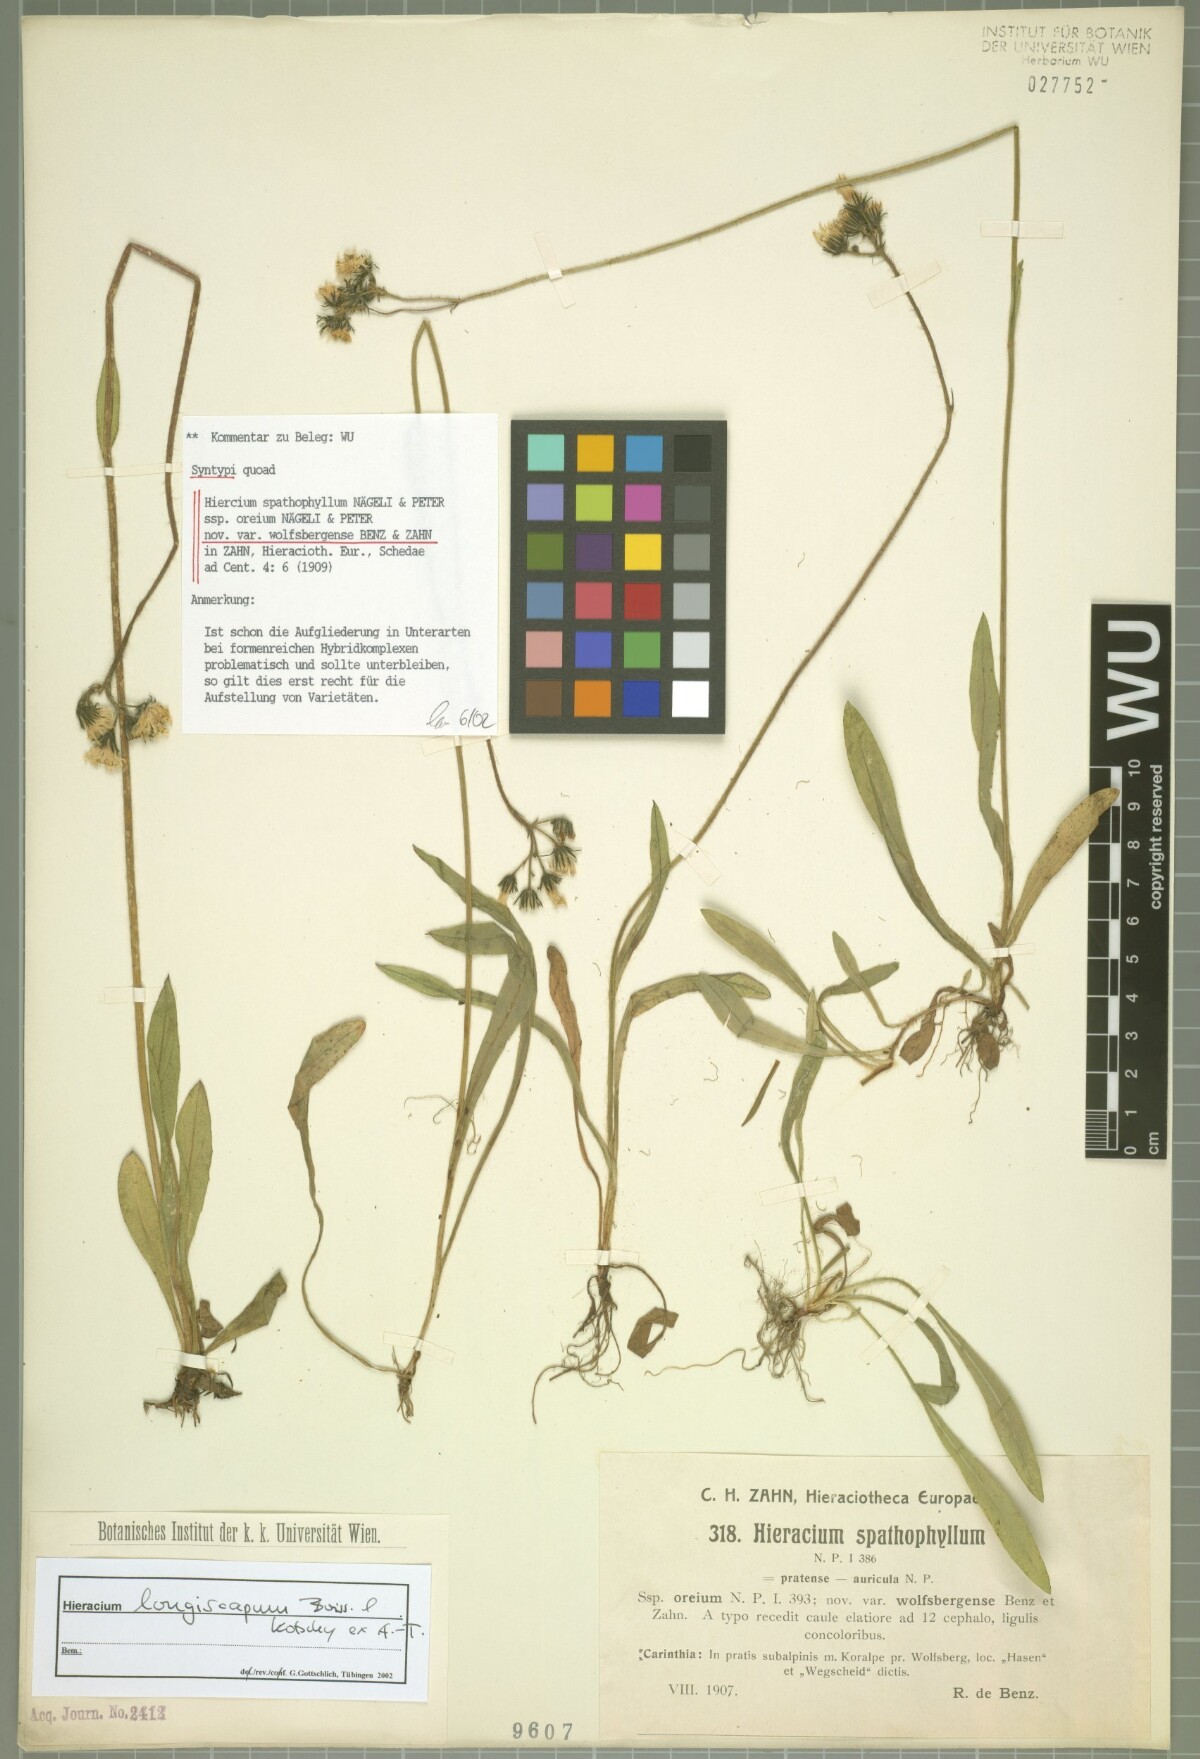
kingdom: Plantae
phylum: Tracheophyta
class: Magnoliopsida
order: Asterales
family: Asteraceae
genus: Pilosella
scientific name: Pilosella longiscapa
